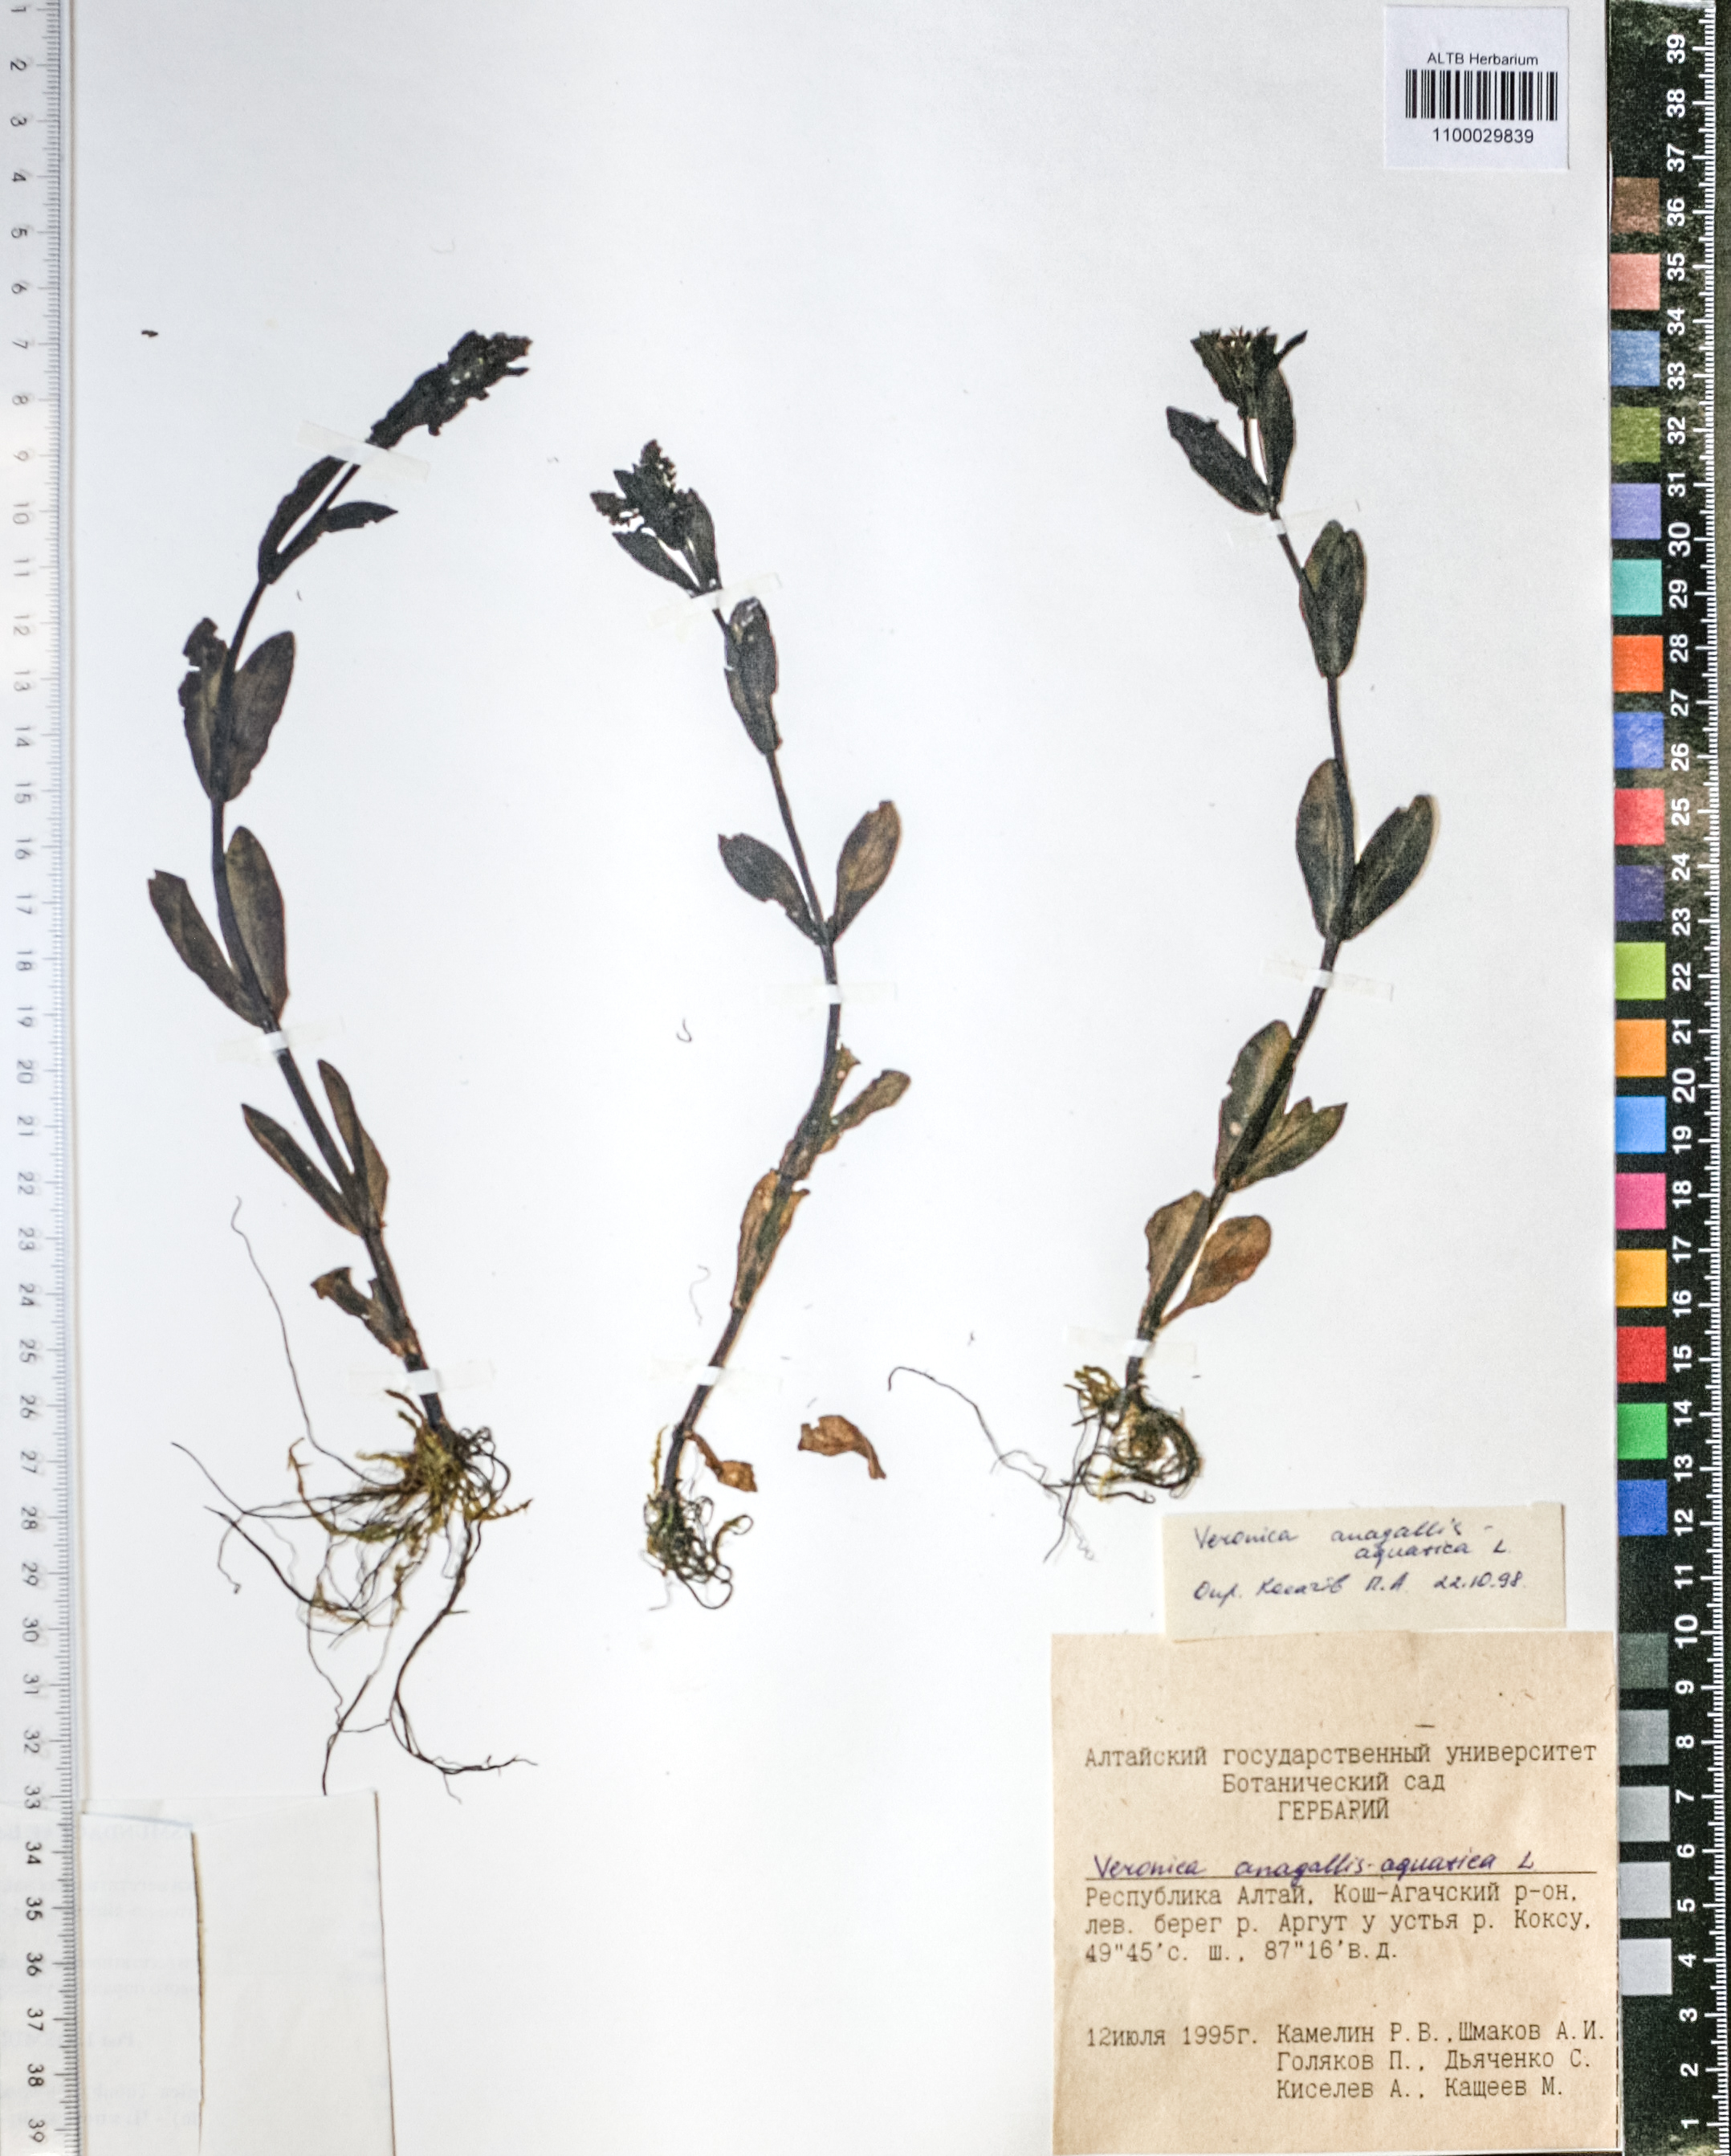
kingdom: Plantae
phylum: Tracheophyta
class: Magnoliopsida
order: Lamiales
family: Plantaginaceae
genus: Veronica
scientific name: Veronica anagallis-aquatica
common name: Water speedwell
